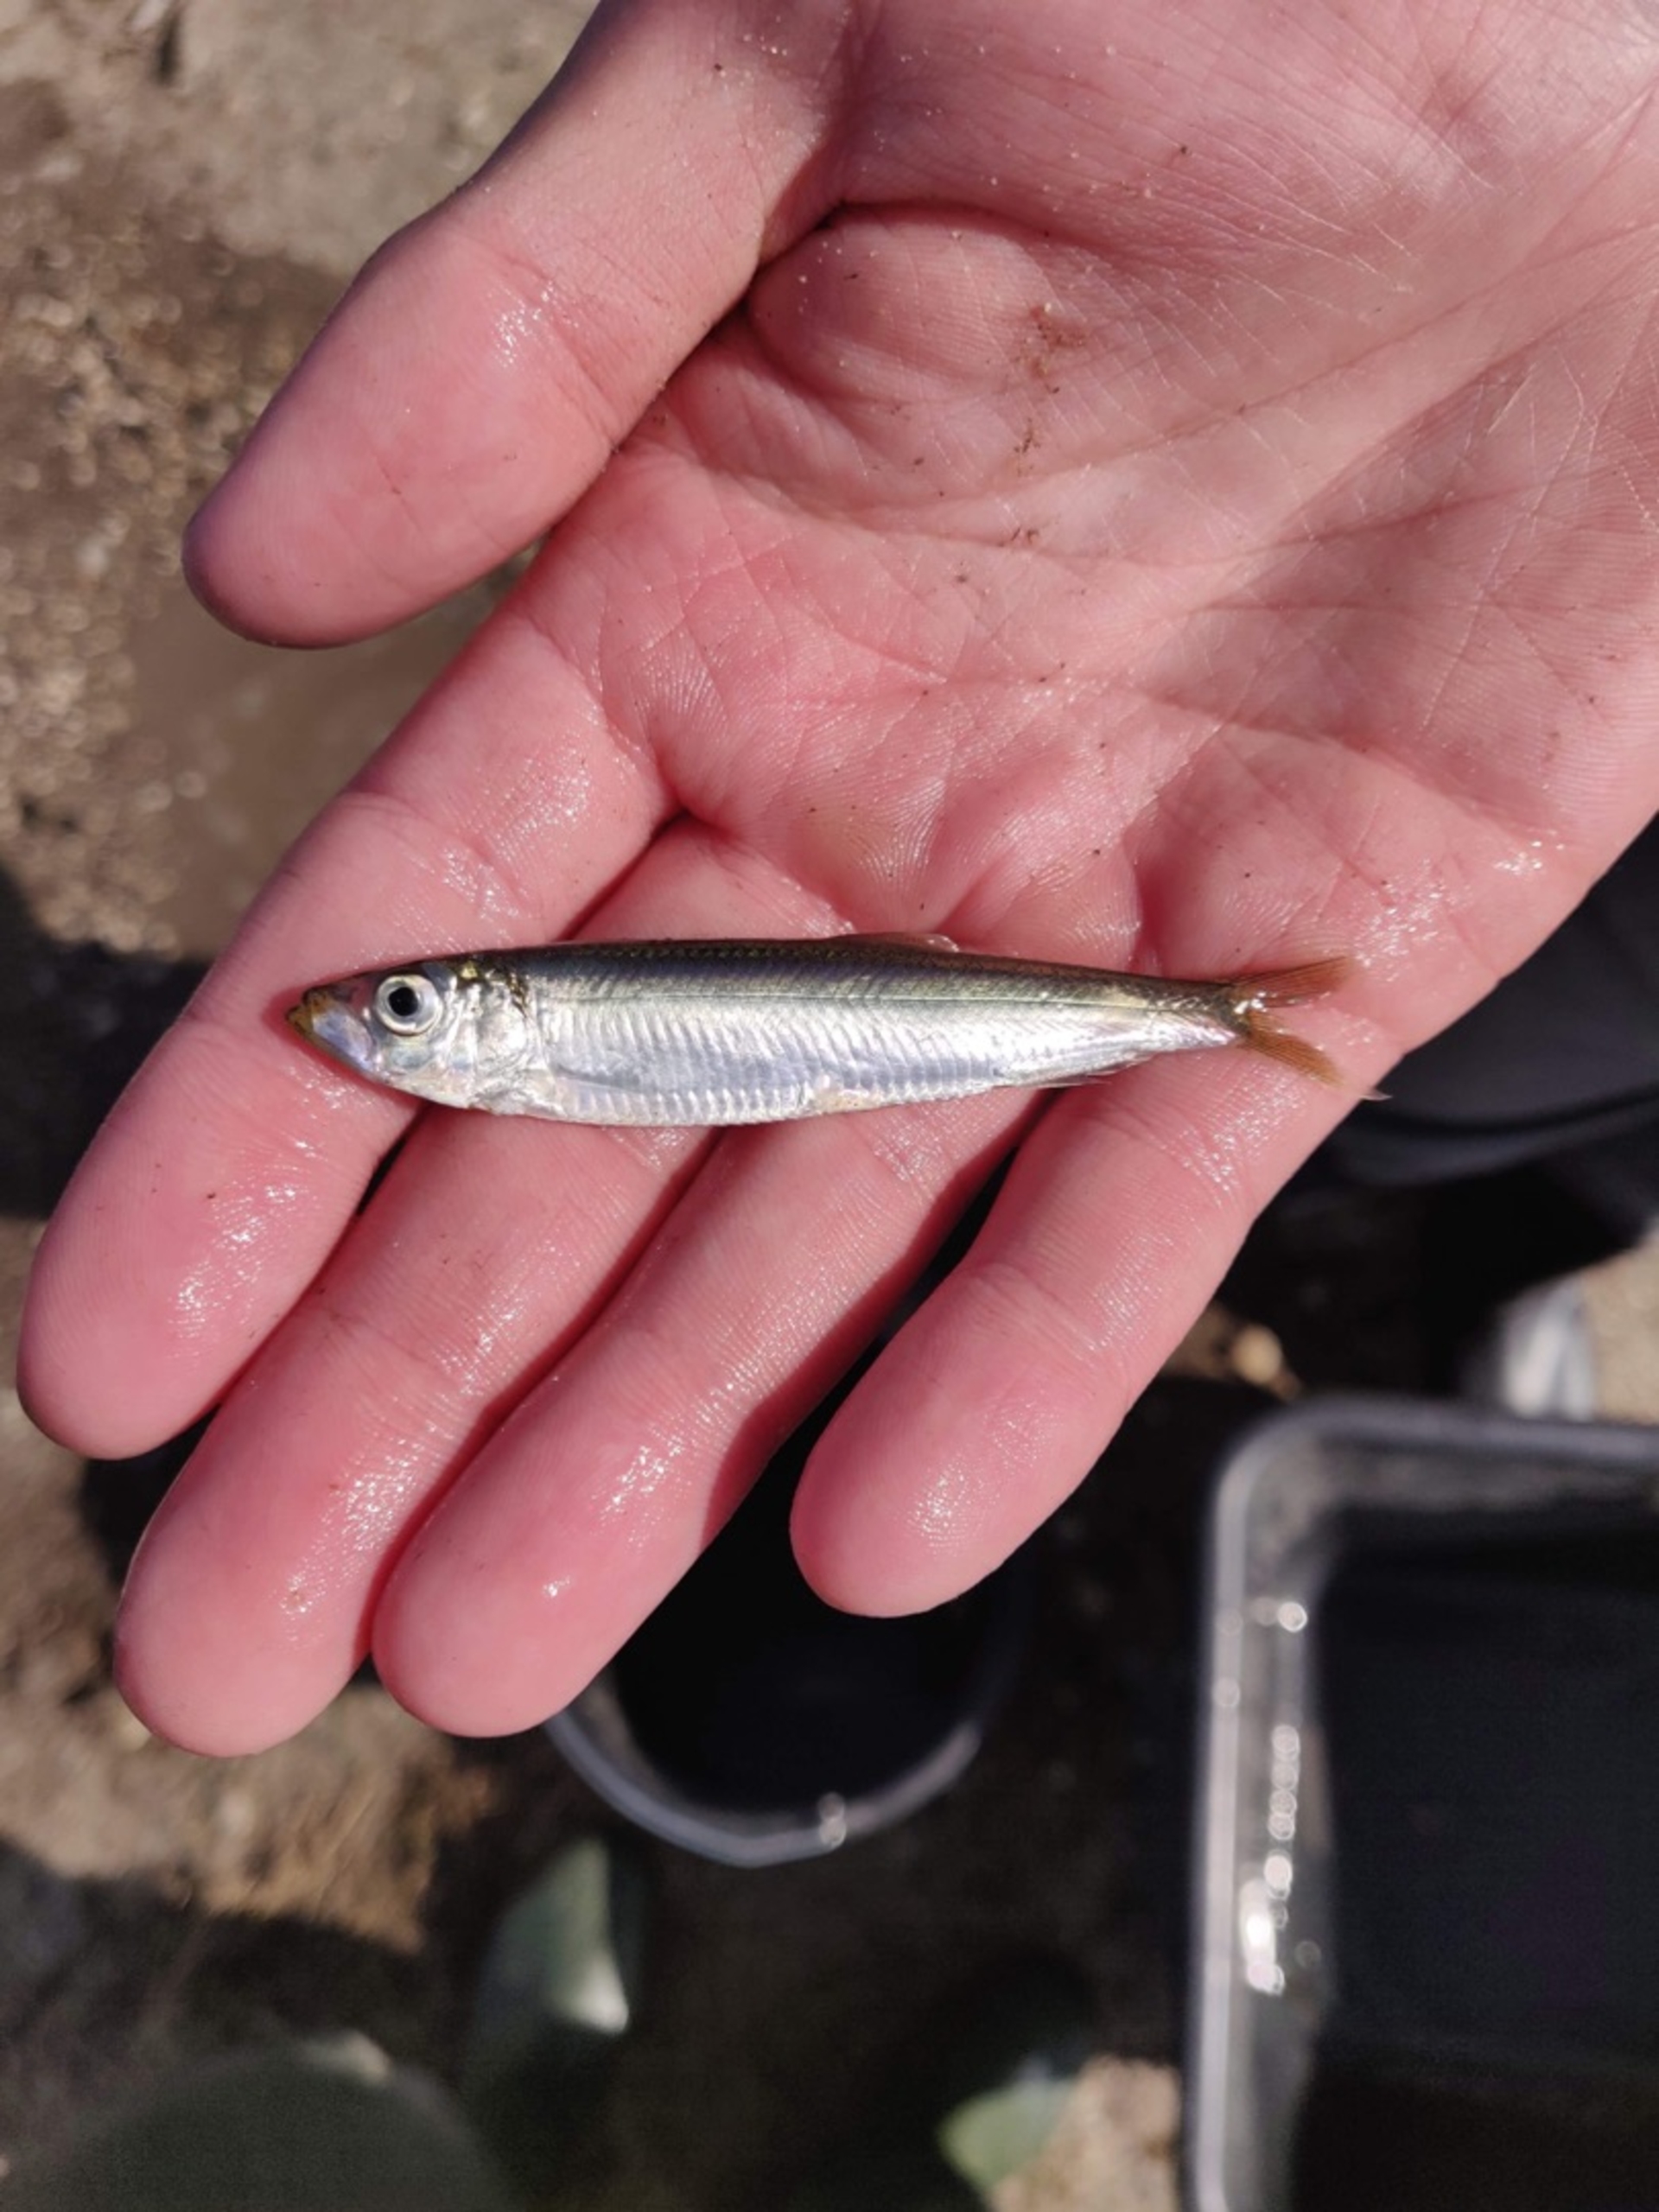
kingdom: Animalia
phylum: Chordata
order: Clupeiformes
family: Clupeidae
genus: Sprattus
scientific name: Sprattus sprattus
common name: Brisling
